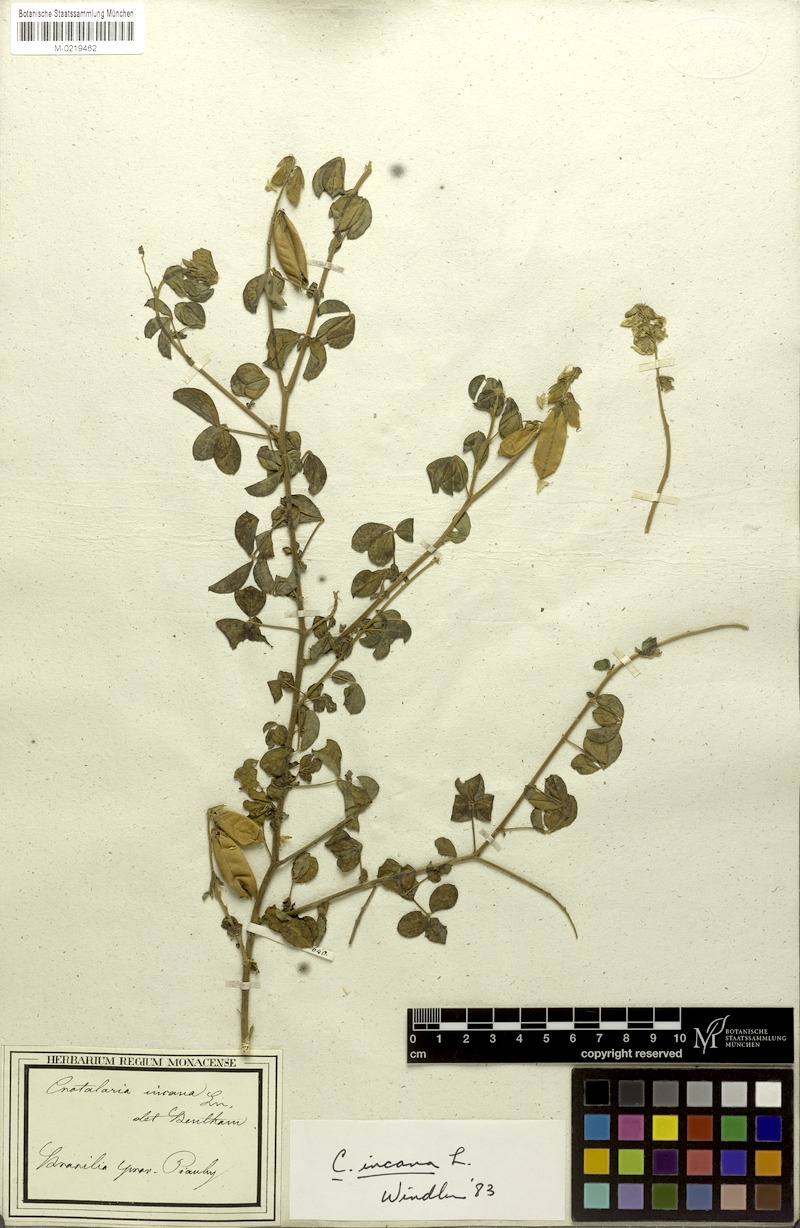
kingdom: Plantae
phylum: Tracheophyta
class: Magnoliopsida
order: Fabales
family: Fabaceae
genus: Crotalaria
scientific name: Crotalaria incana
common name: Shakeshake
